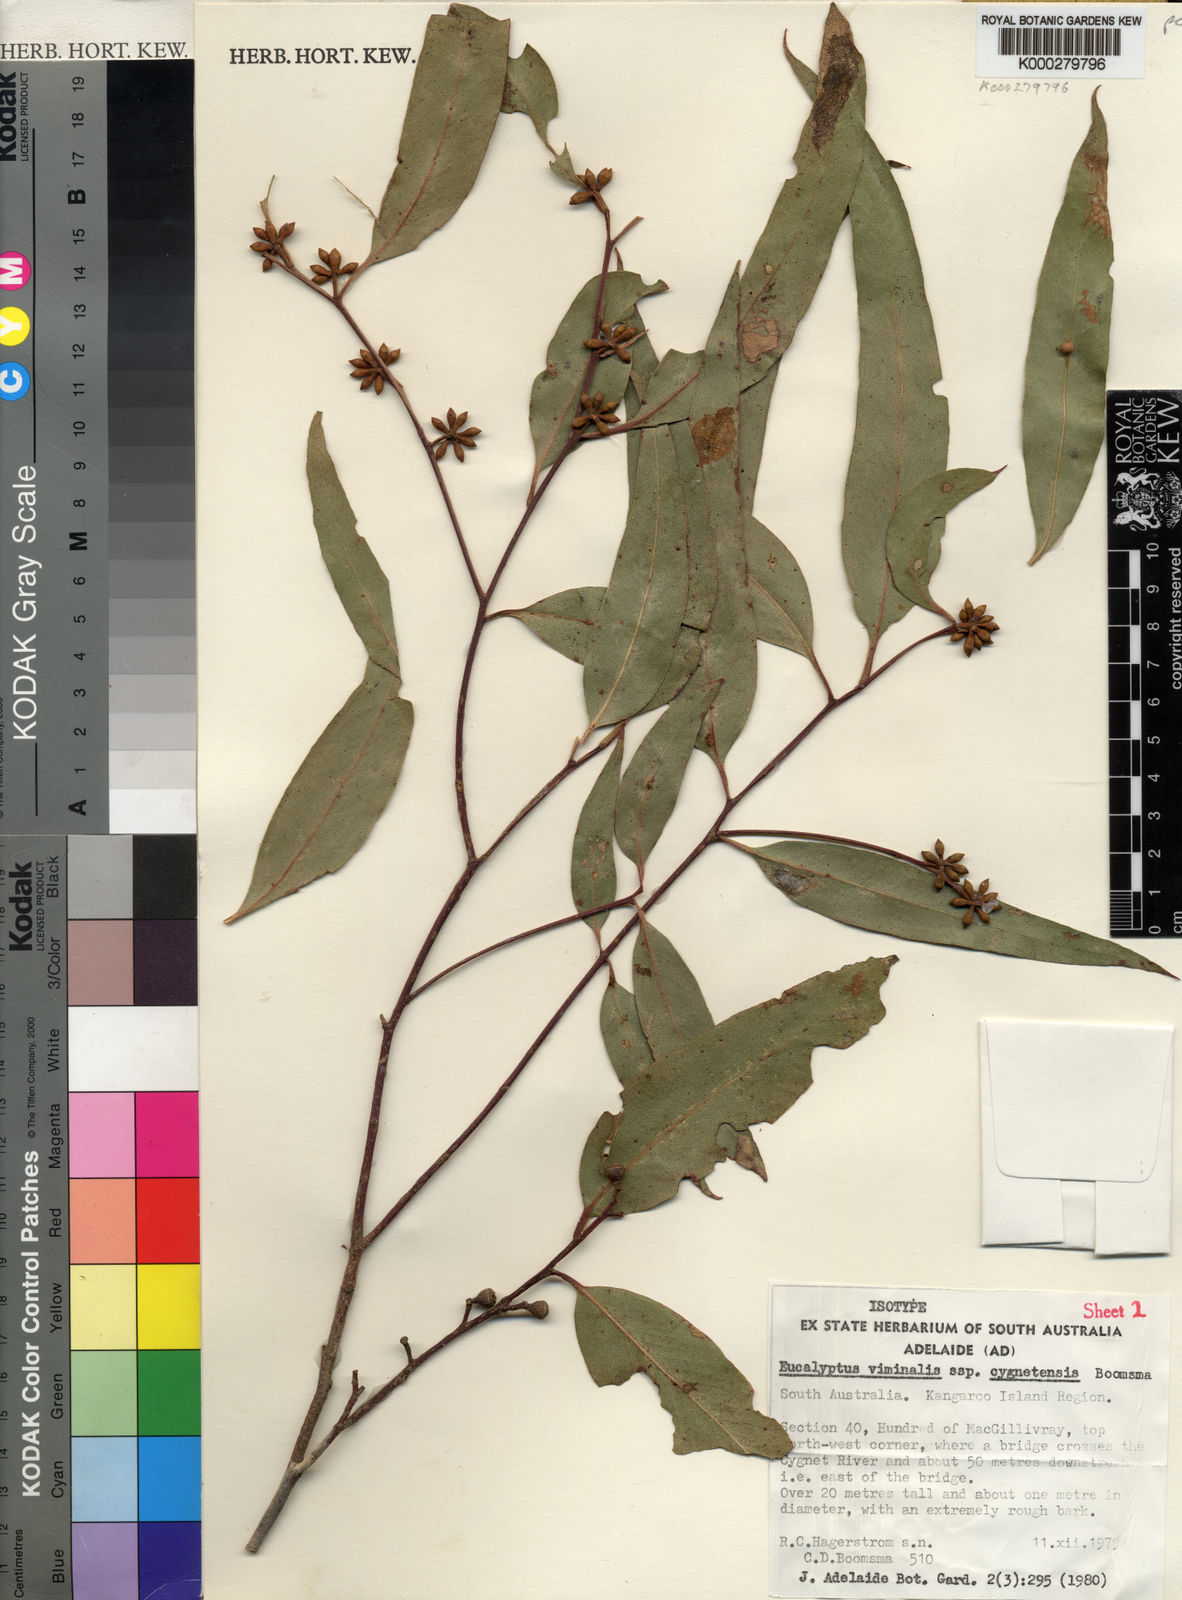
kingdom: Plantae
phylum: Tracheophyta
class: Magnoliopsida
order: Myrtales
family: Myrtaceae
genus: Eucalyptus
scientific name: Eucalyptus viminalis
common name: Manna gum
